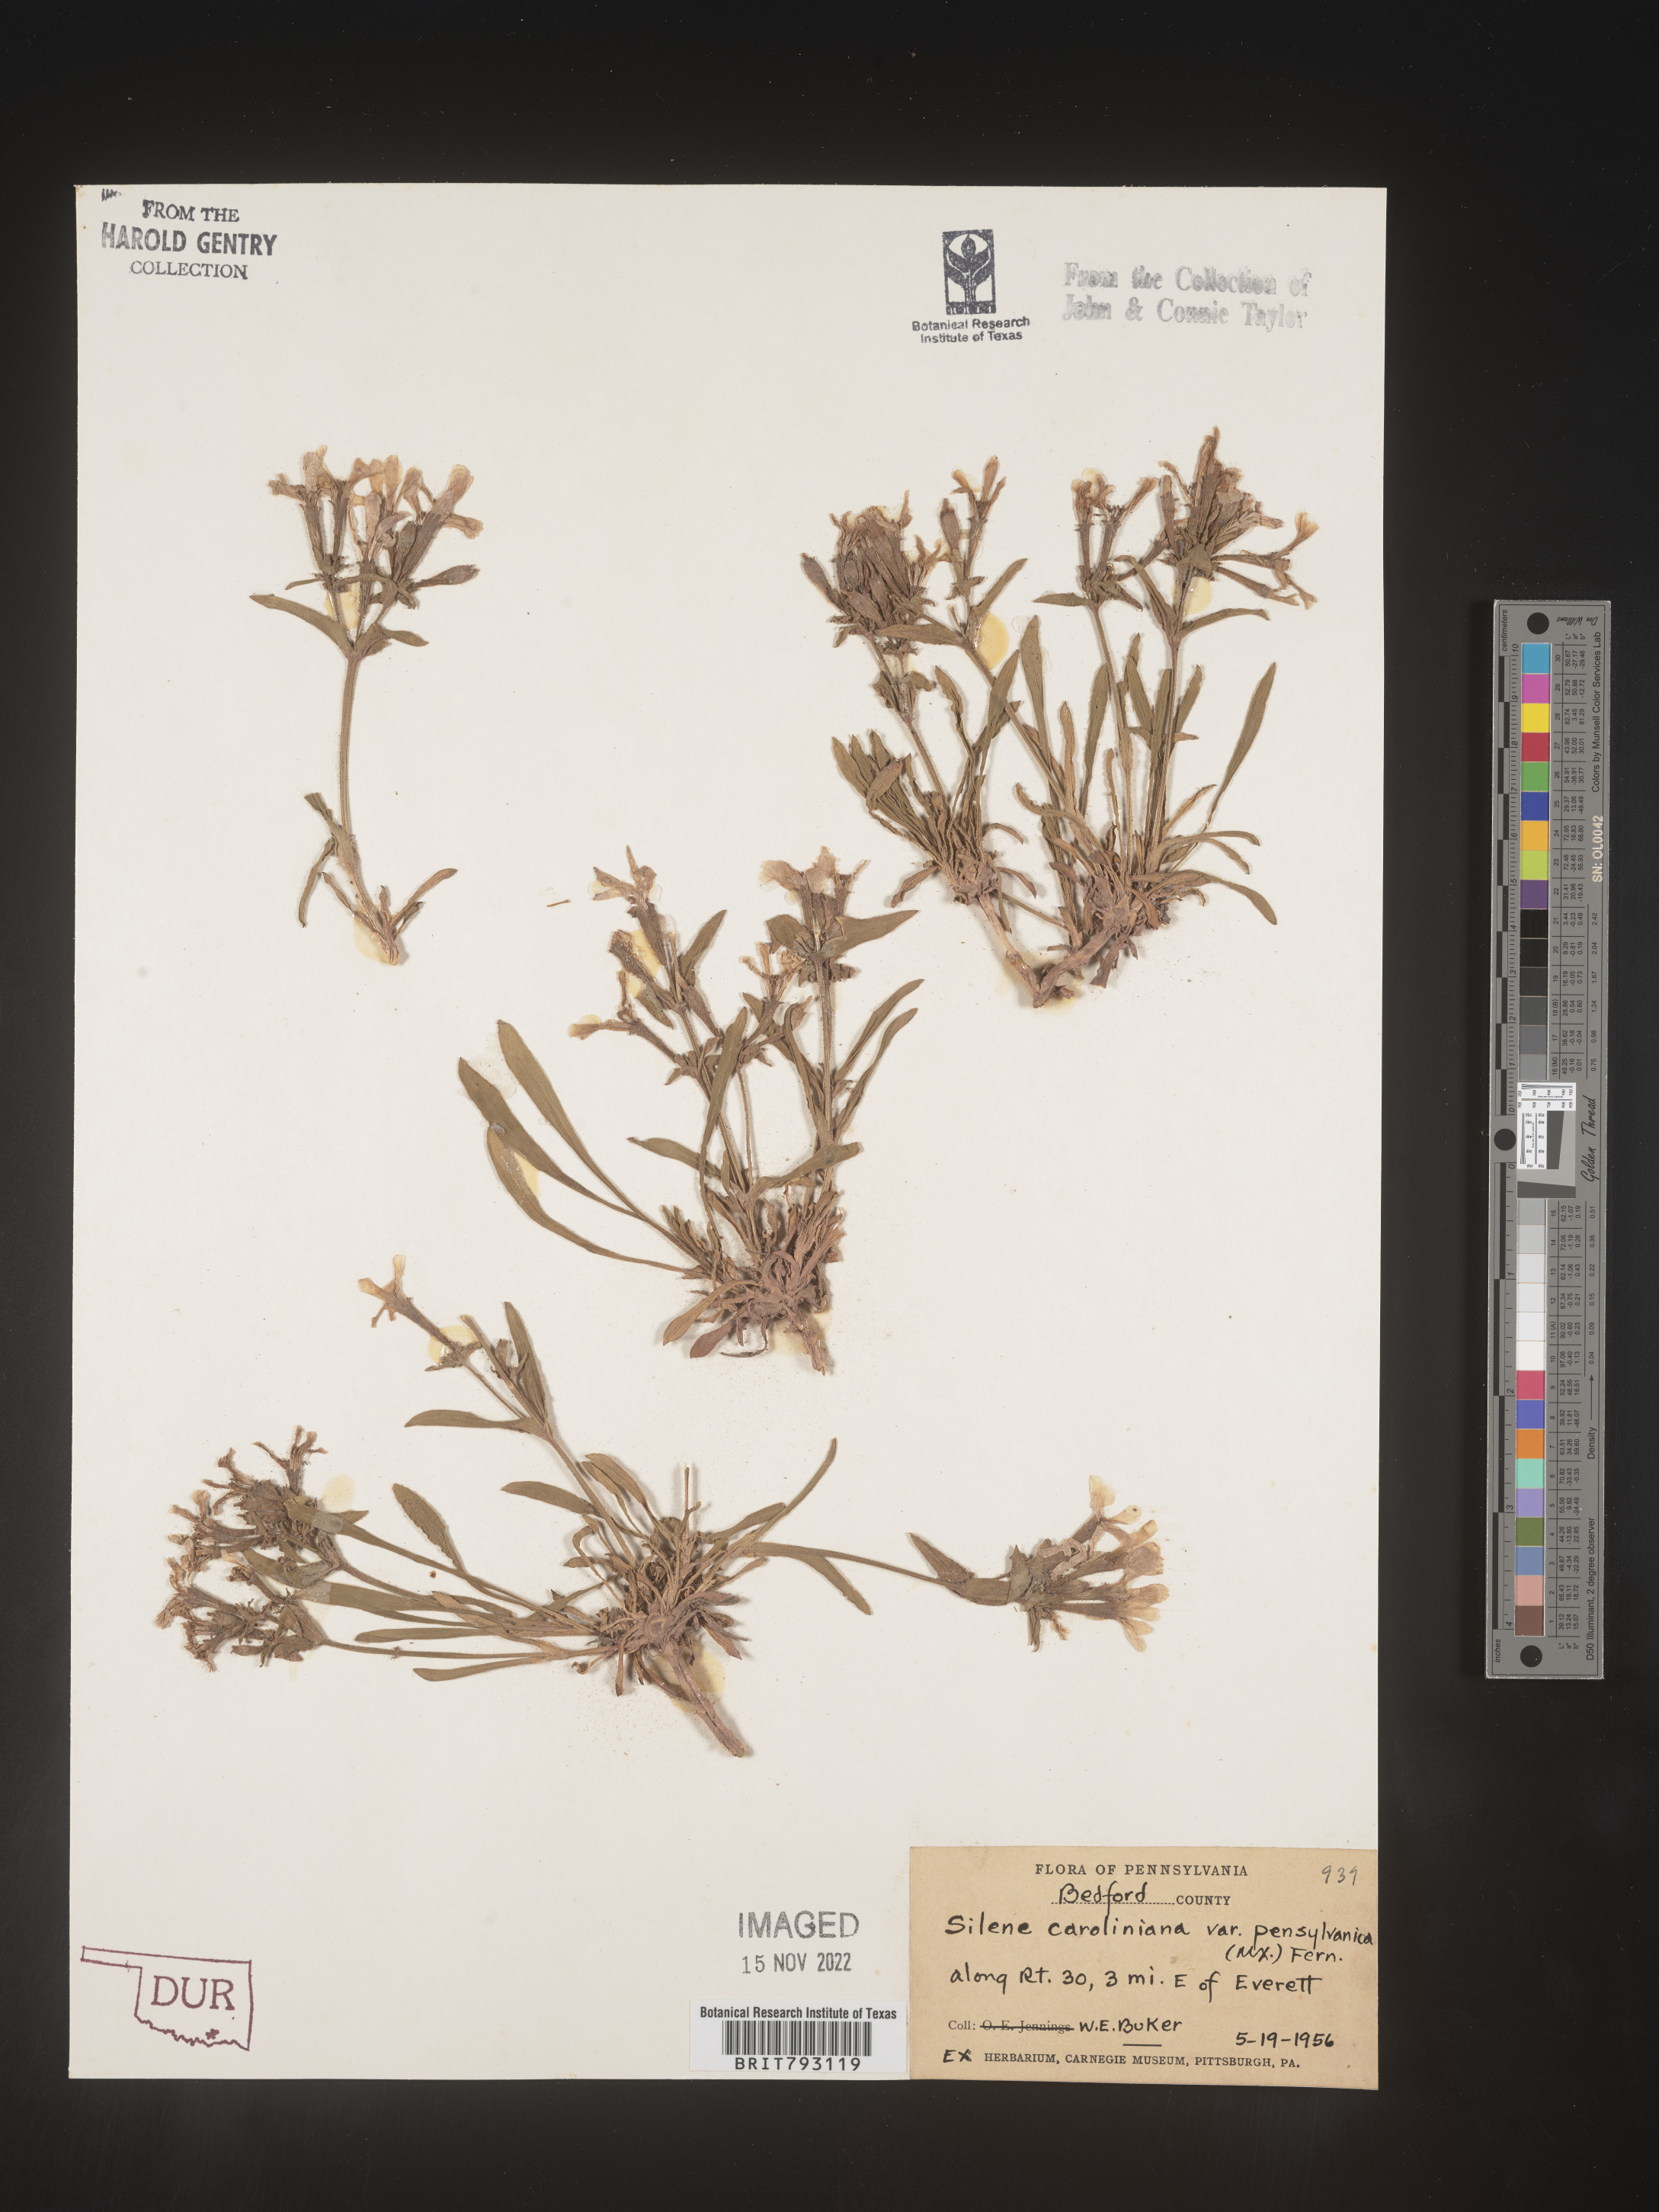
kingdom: Plantae
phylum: Tracheophyta
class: Magnoliopsida
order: Caryophyllales
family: Caryophyllaceae
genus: Silene
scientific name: Silene caroliniana
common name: Sticky catchfly
